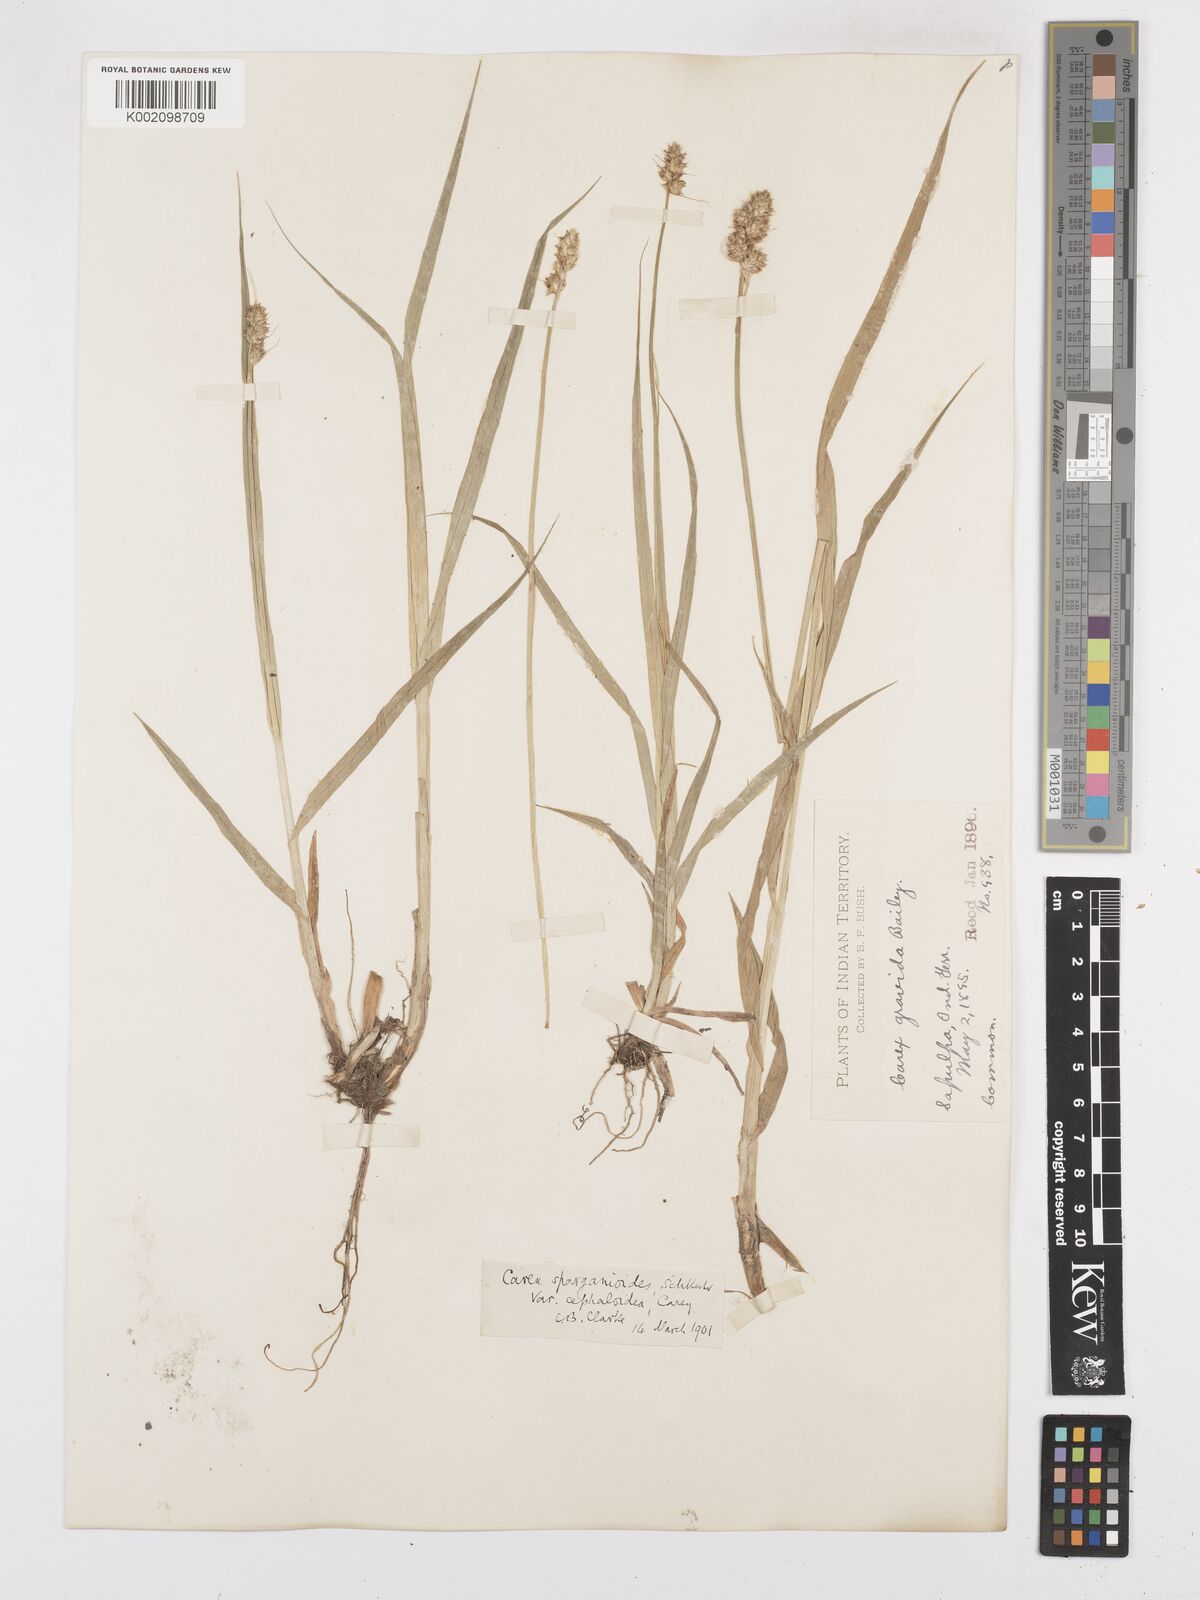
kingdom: Plantae
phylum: Tracheophyta
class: Liliopsida
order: Poales
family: Cyperaceae
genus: Carex
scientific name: Carex gravida
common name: Heavy sedge
